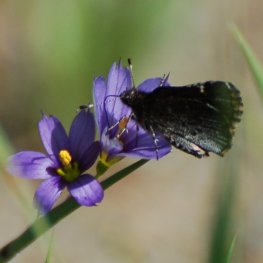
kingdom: Animalia
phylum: Arthropoda
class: Insecta
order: Lepidoptera
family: Hesperiidae
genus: Mastor
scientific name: Mastor vialis
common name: Common Roadside-Skipper
